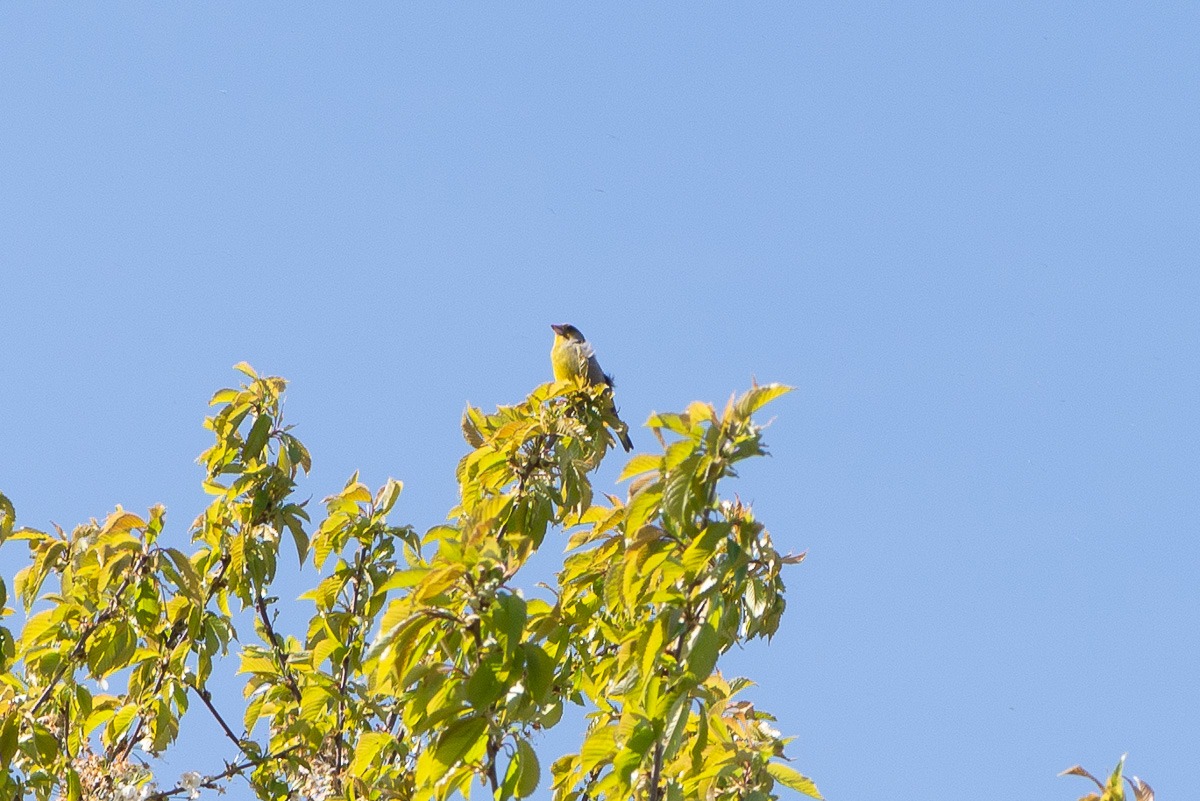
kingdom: Plantae
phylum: Tracheophyta
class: Liliopsida
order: Poales
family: Poaceae
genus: Chloris
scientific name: Chloris chloris
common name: Grønirisk
